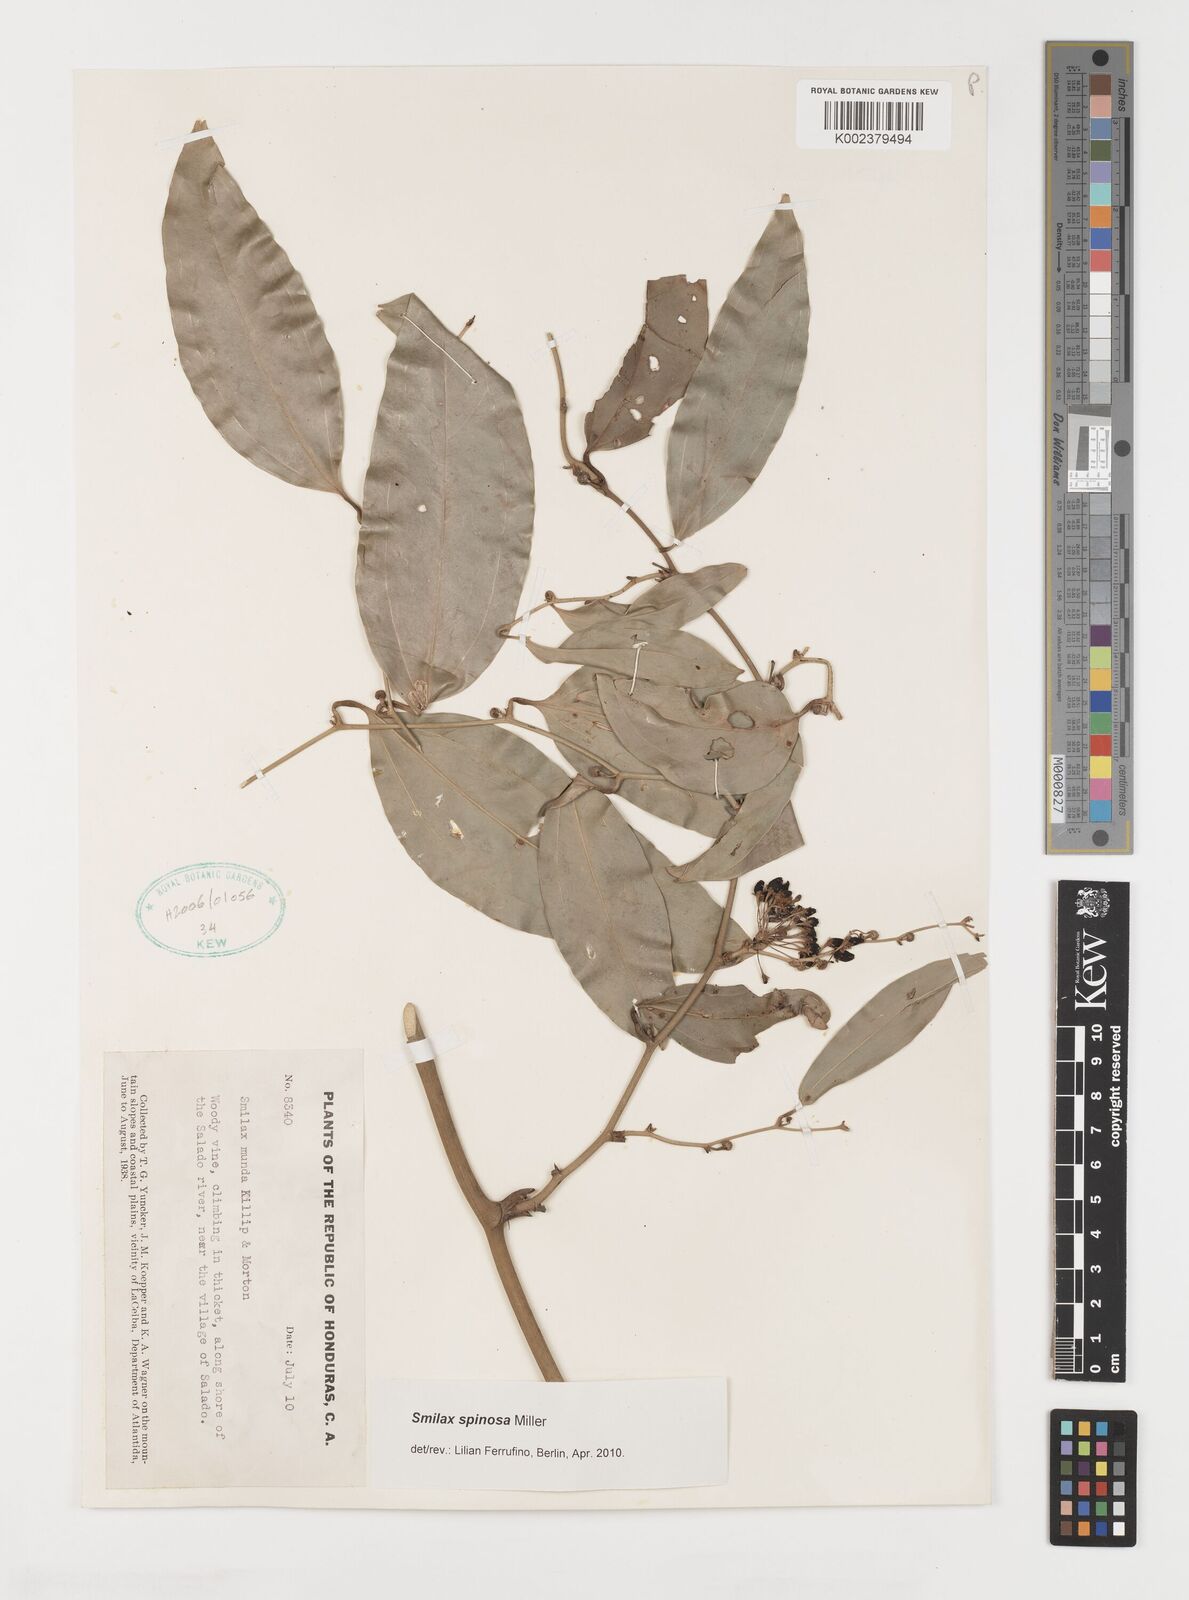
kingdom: Plantae
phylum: Tracheophyta
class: Liliopsida
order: Liliales
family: Smilacaceae
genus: Smilax
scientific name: Smilax spinosa
